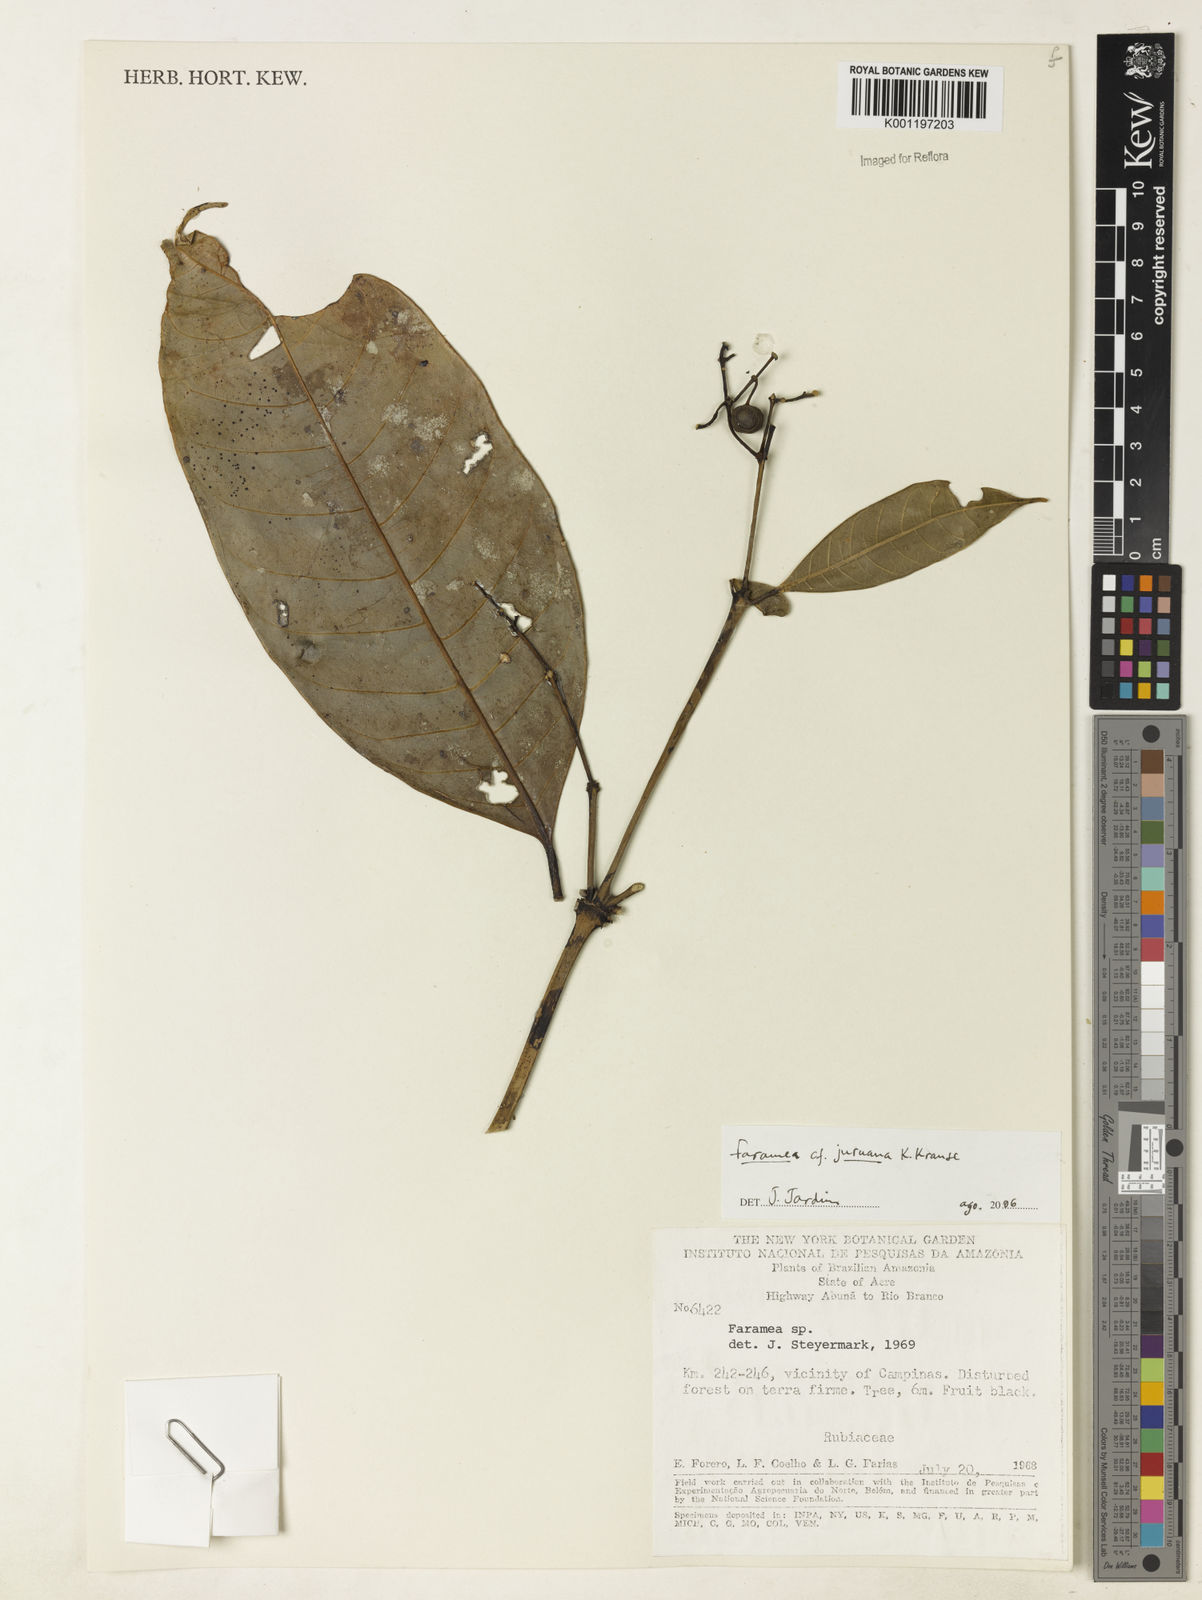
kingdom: Plantae
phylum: Tracheophyta
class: Magnoliopsida
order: Gentianales
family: Rubiaceae
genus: Faramea
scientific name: Faramea juruana
